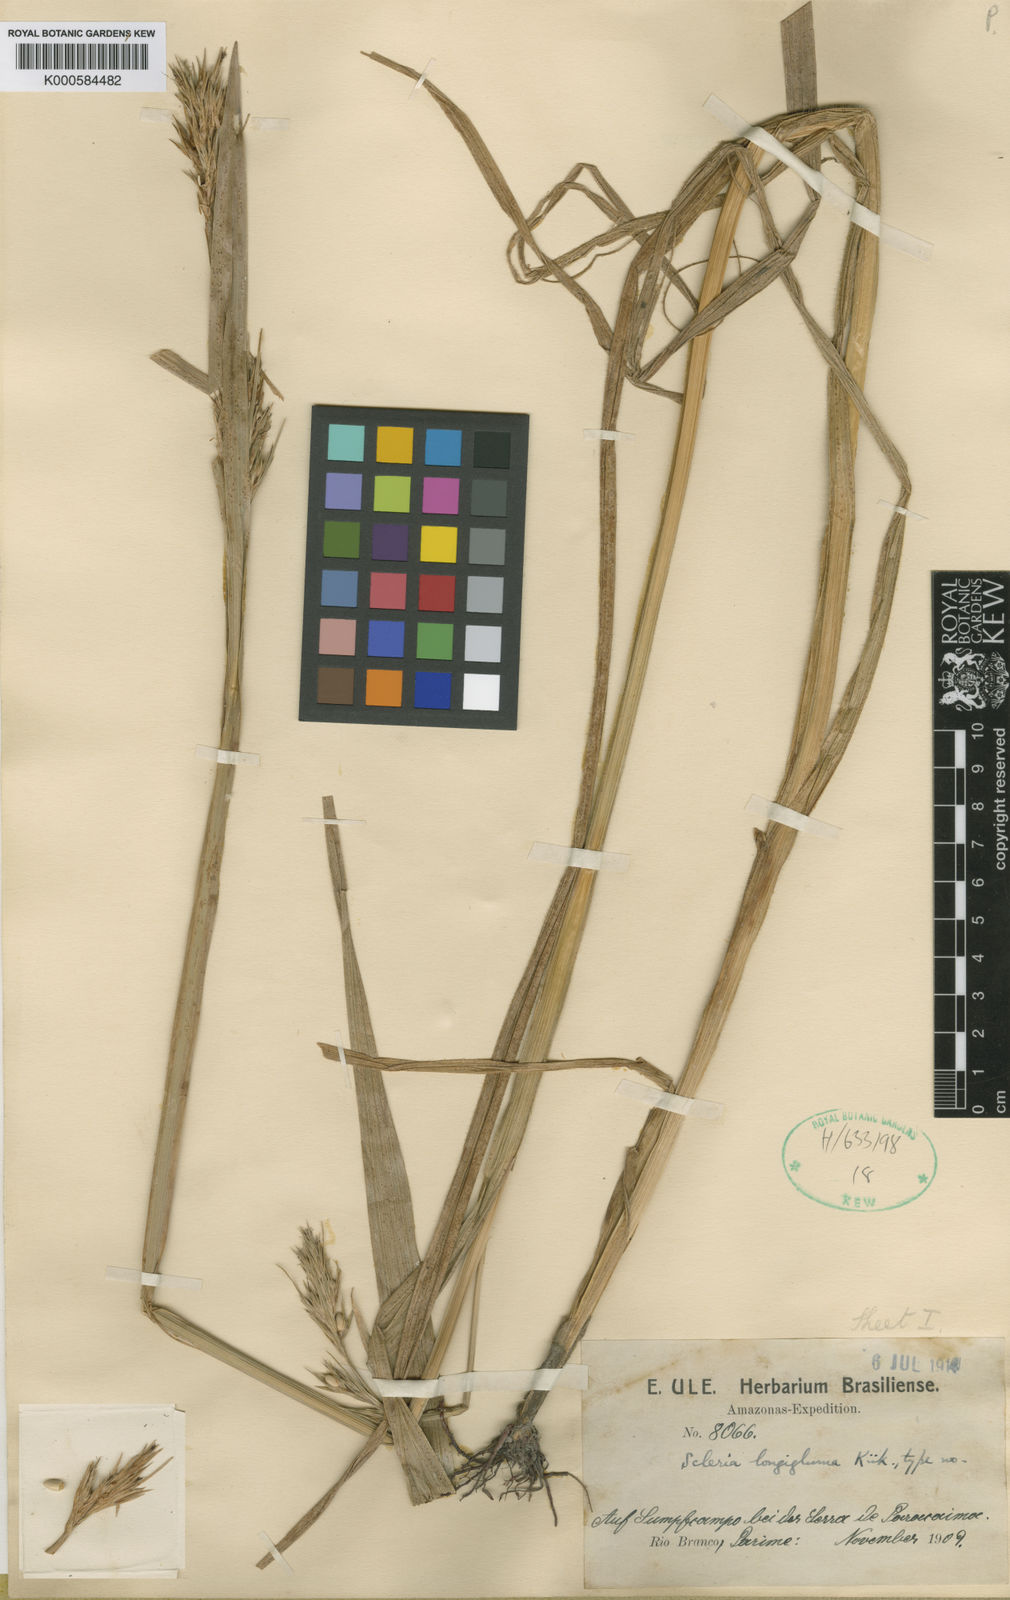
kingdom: Plantae
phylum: Tracheophyta
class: Liliopsida
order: Poales
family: Cyperaceae
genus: Scleria
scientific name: Scleria
